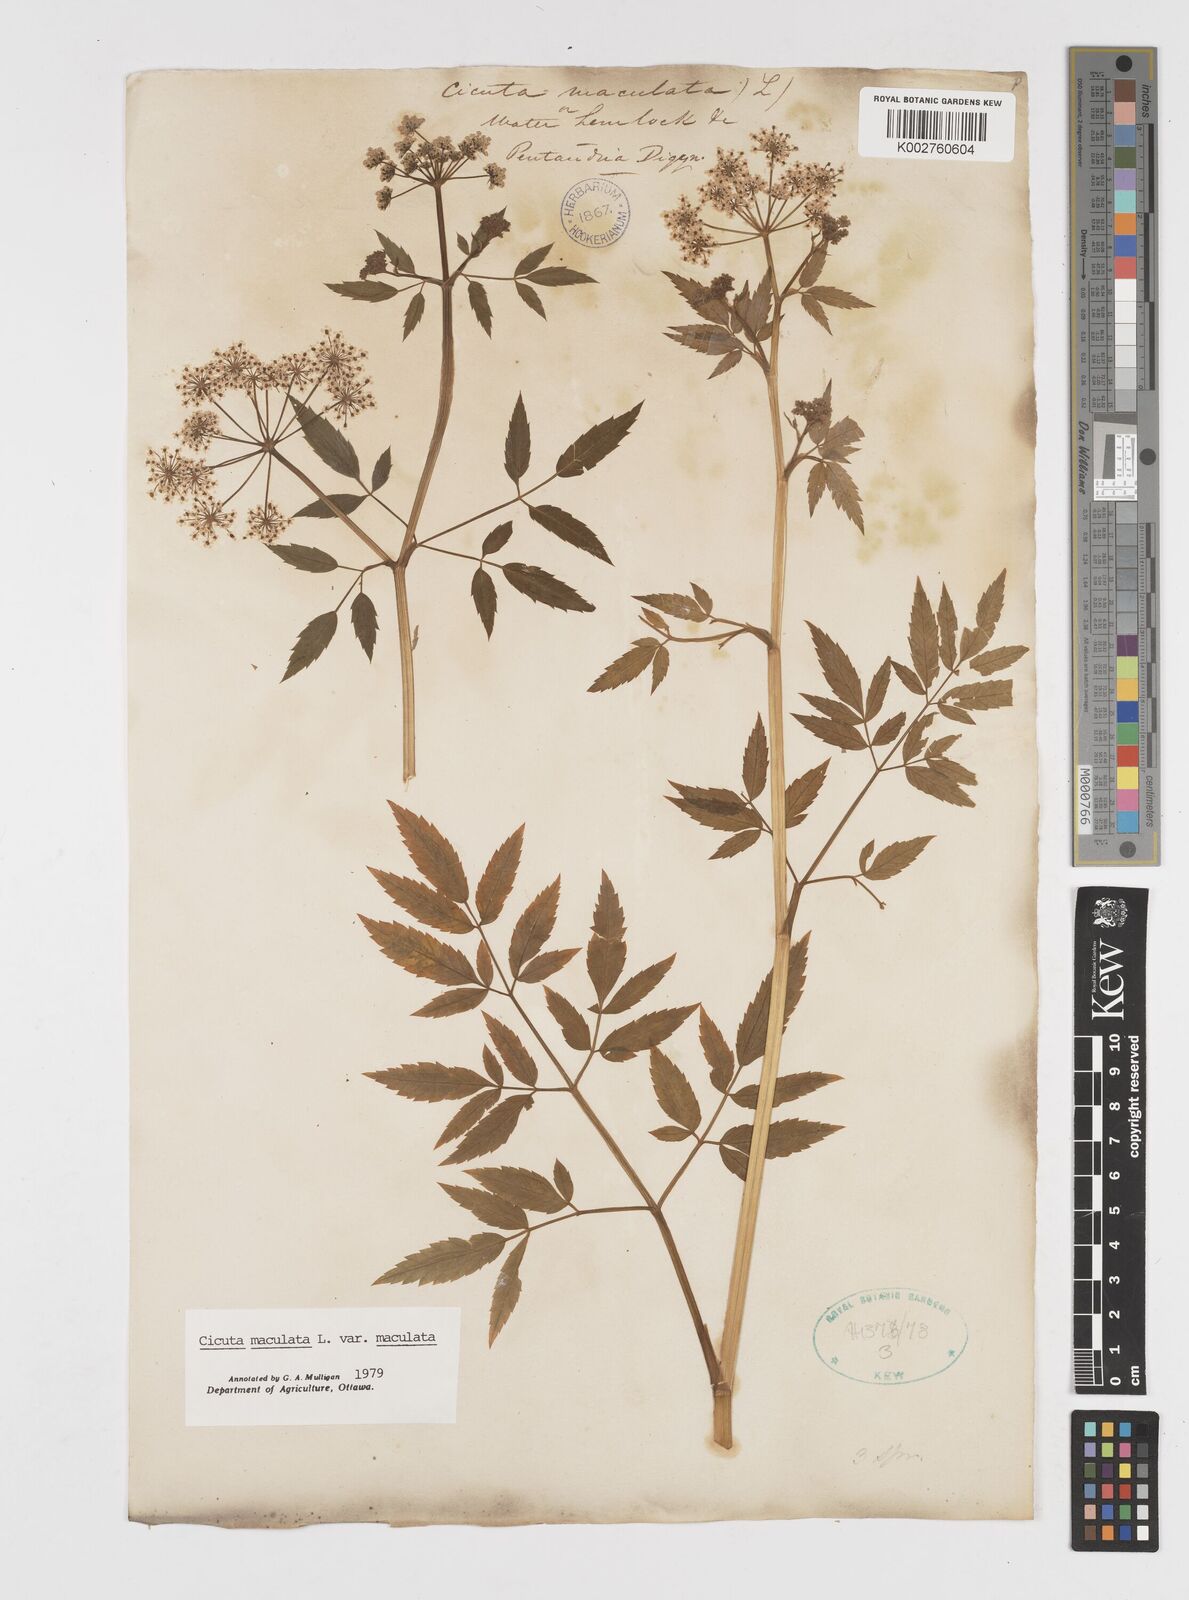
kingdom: Plantae
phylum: Tracheophyta
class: Magnoliopsida
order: Apiales
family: Apiaceae
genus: Cicuta
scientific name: Cicuta maculata
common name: Spotted cowbane
